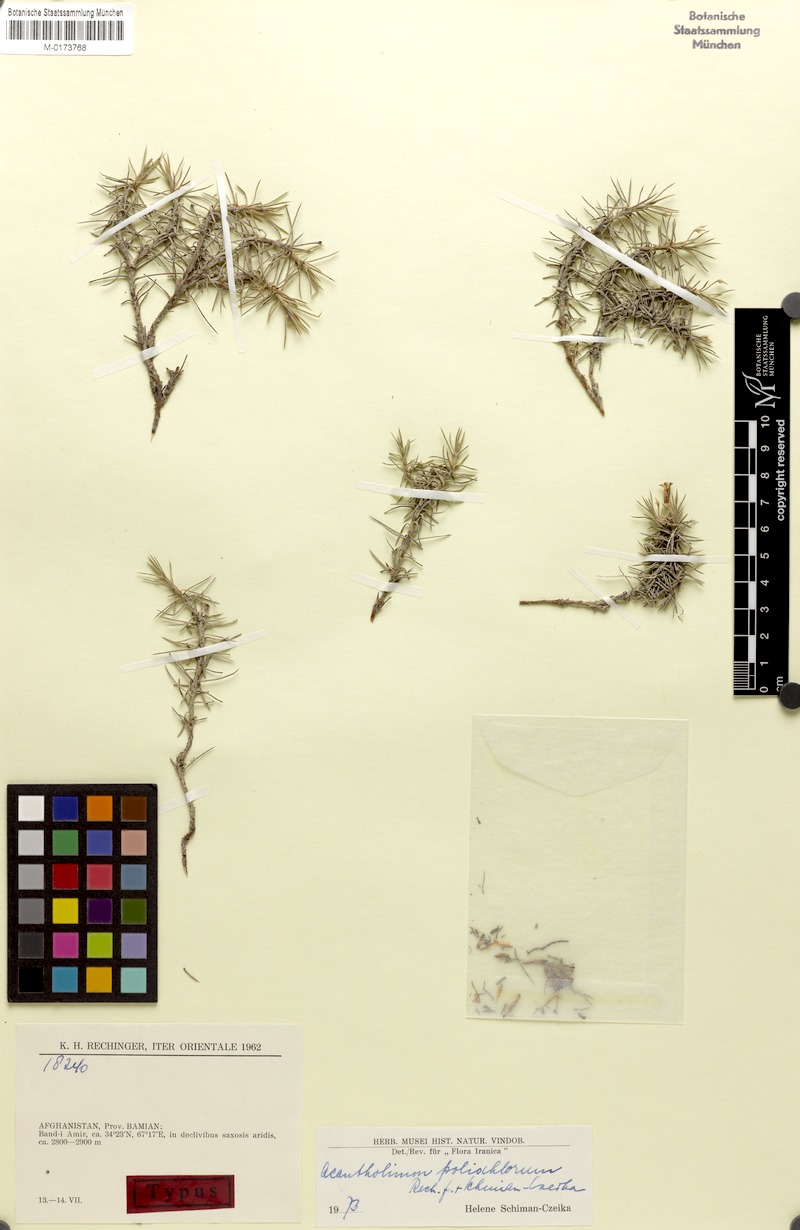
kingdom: Plantae
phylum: Tracheophyta
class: Magnoliopsida
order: Caryophyllales
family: Plumbaginaceae
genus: Acantholimon
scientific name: Acantholimon poliochlorum
